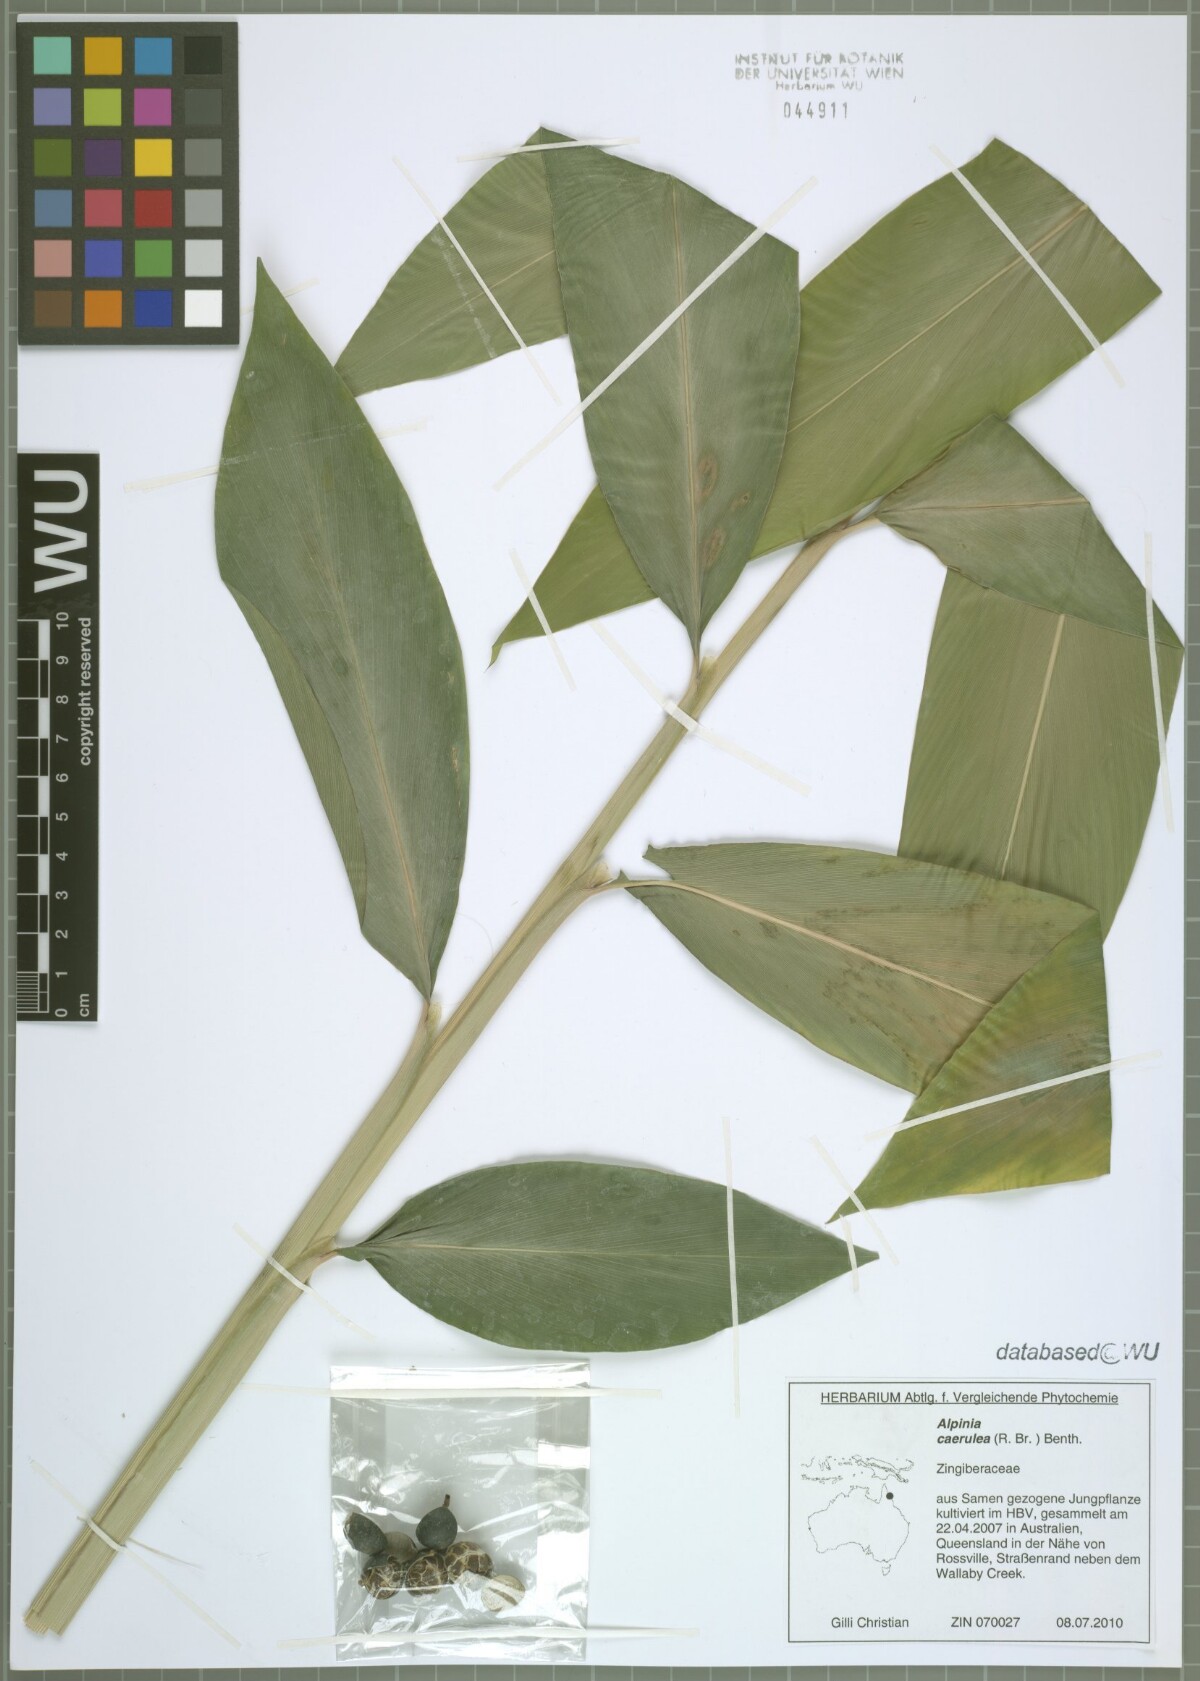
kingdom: Plantae
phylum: Tracheophyta
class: Liliopsida
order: Zingiberales
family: Zingiberaceae
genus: Alpinia
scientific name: Alpinia caerulea
